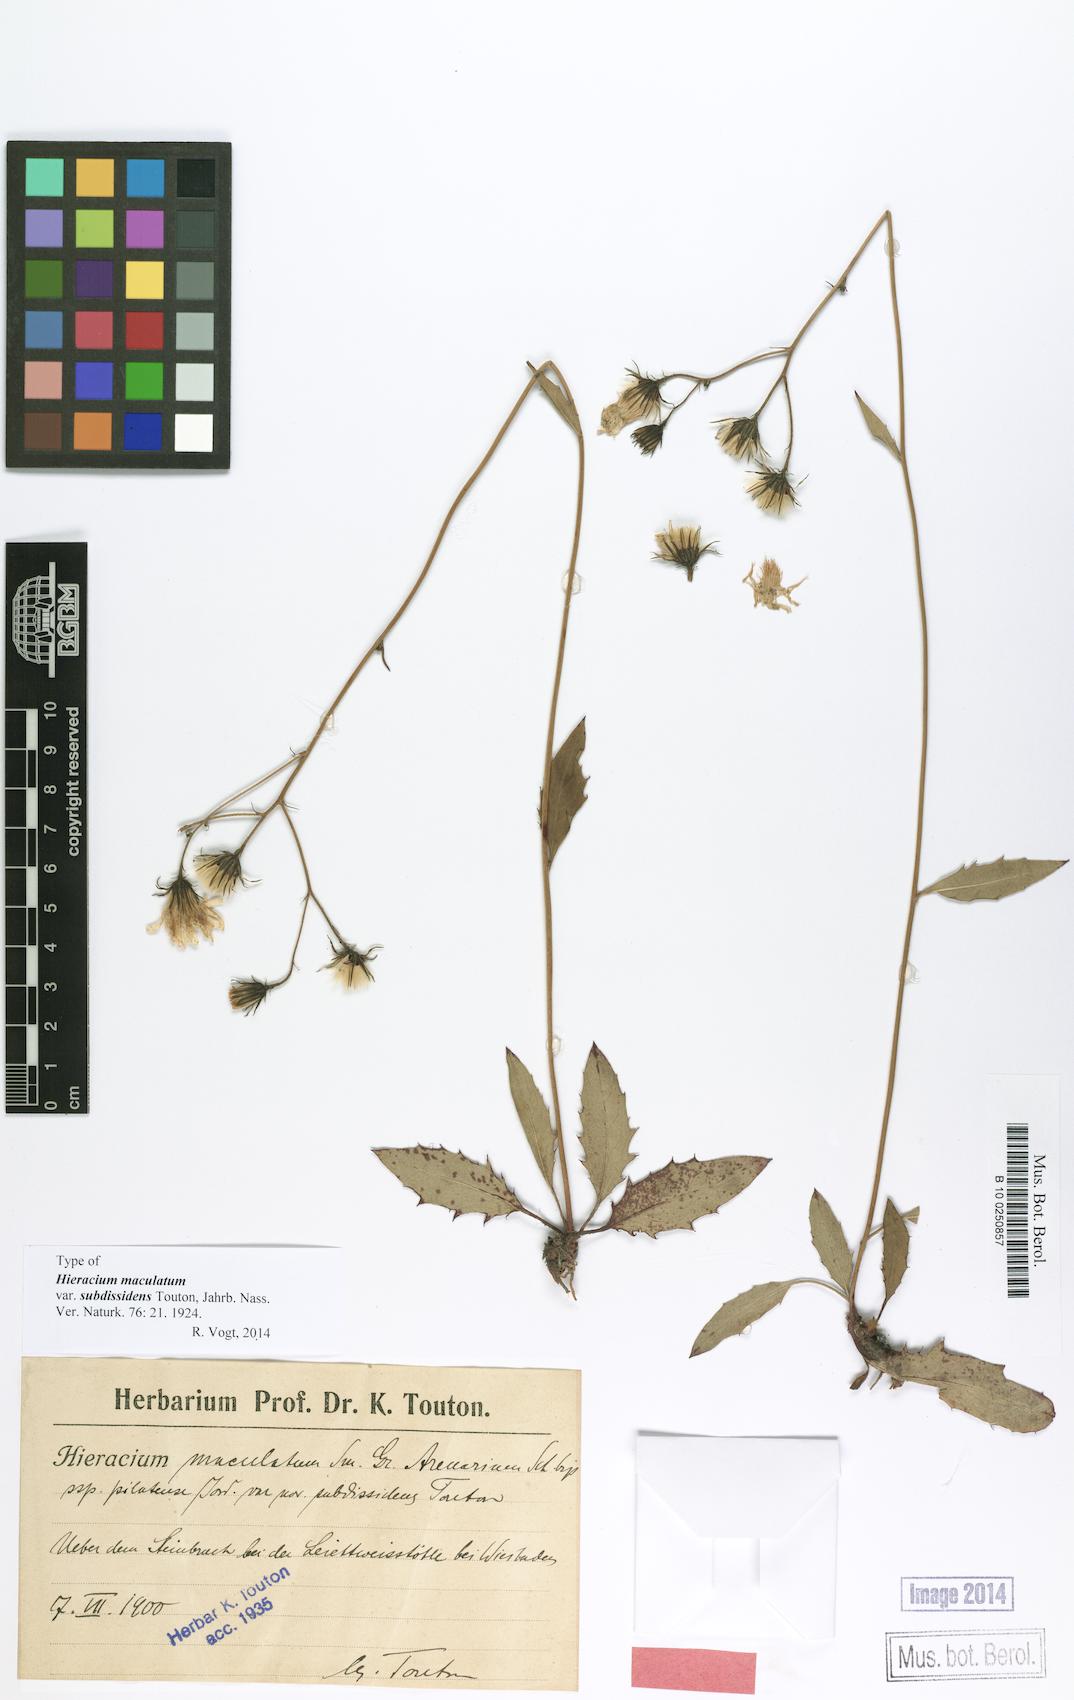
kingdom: Plantae
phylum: Tracheophyta
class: Magnoliopsida
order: Asterales
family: Asteraceae
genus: Hieracium
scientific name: Hieracium maculatum
